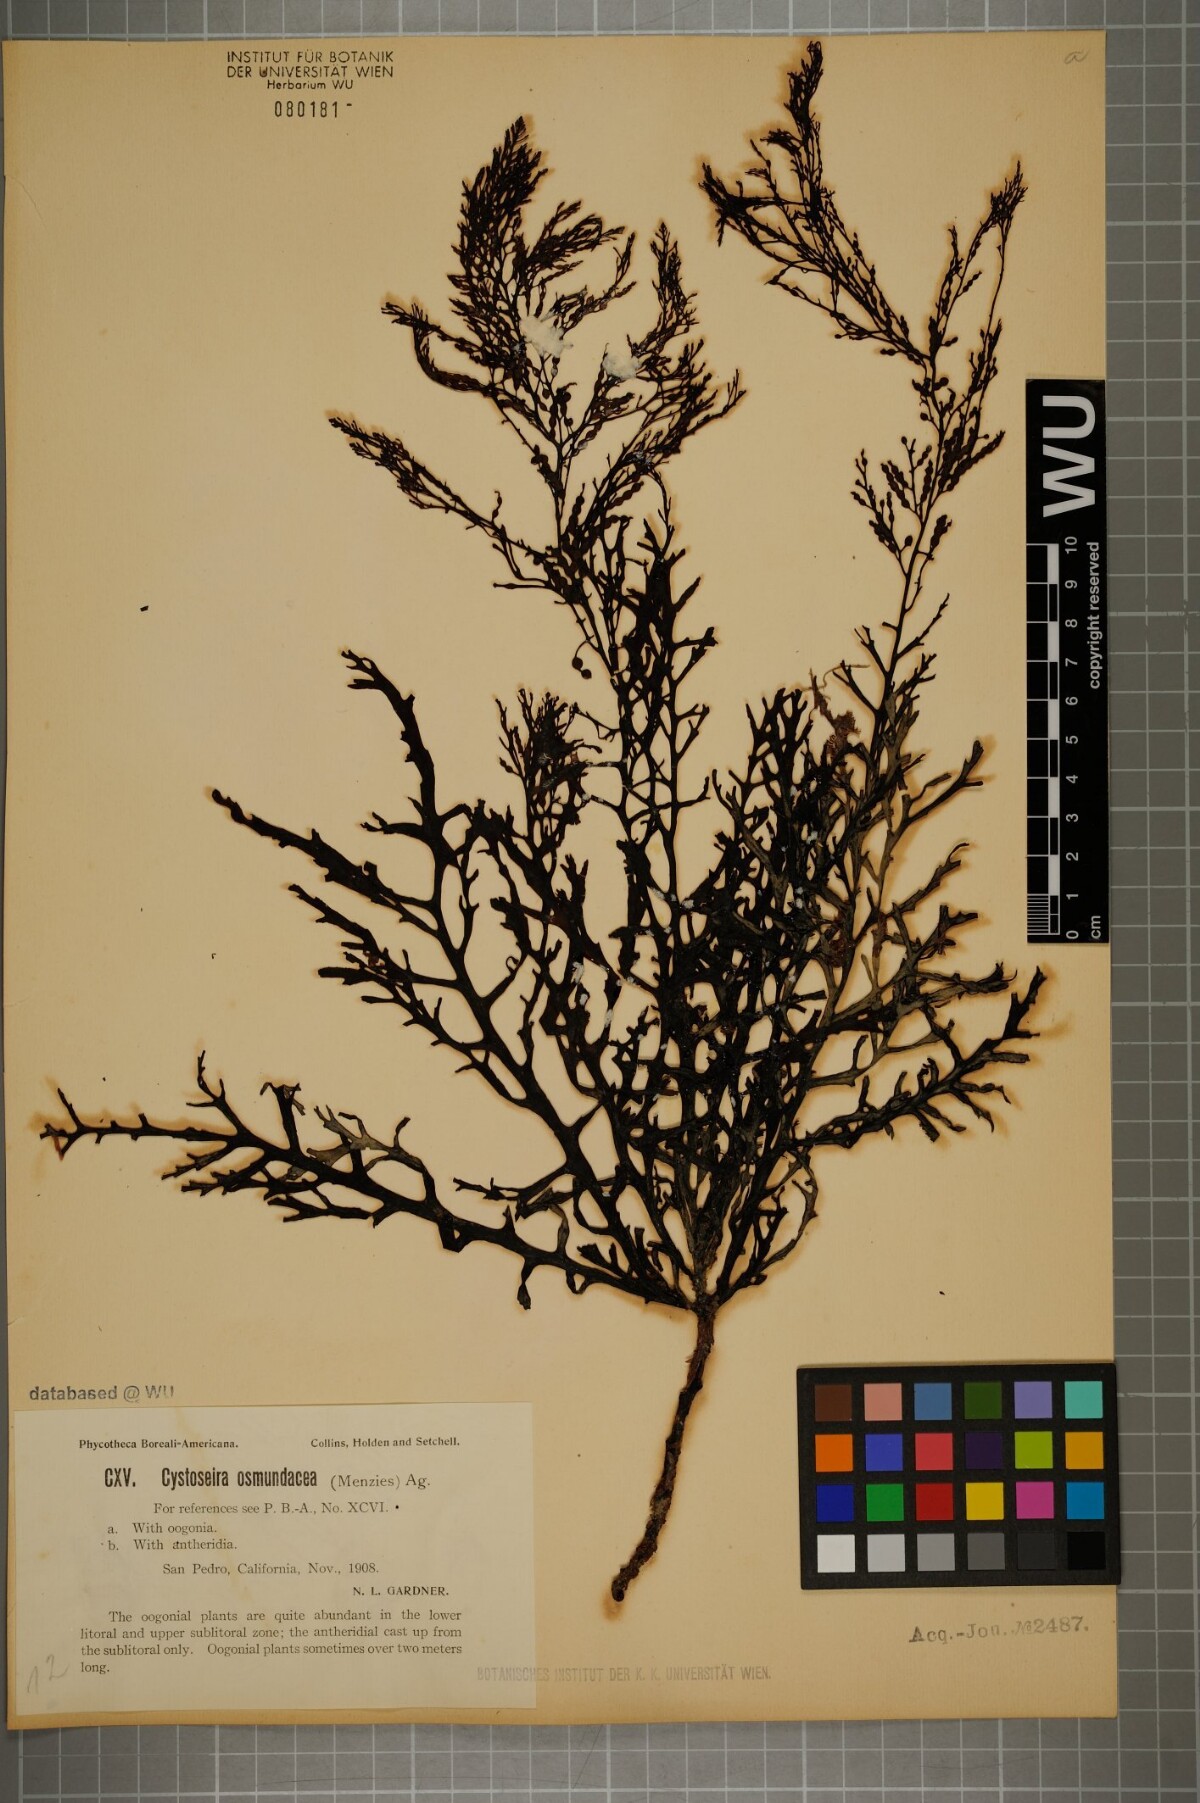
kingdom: Chromista
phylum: Ochrophyta
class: Phaeophyceae
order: Fucales
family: Sargassaceae
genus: Cystoseira
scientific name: Cystoseira osmundacea
